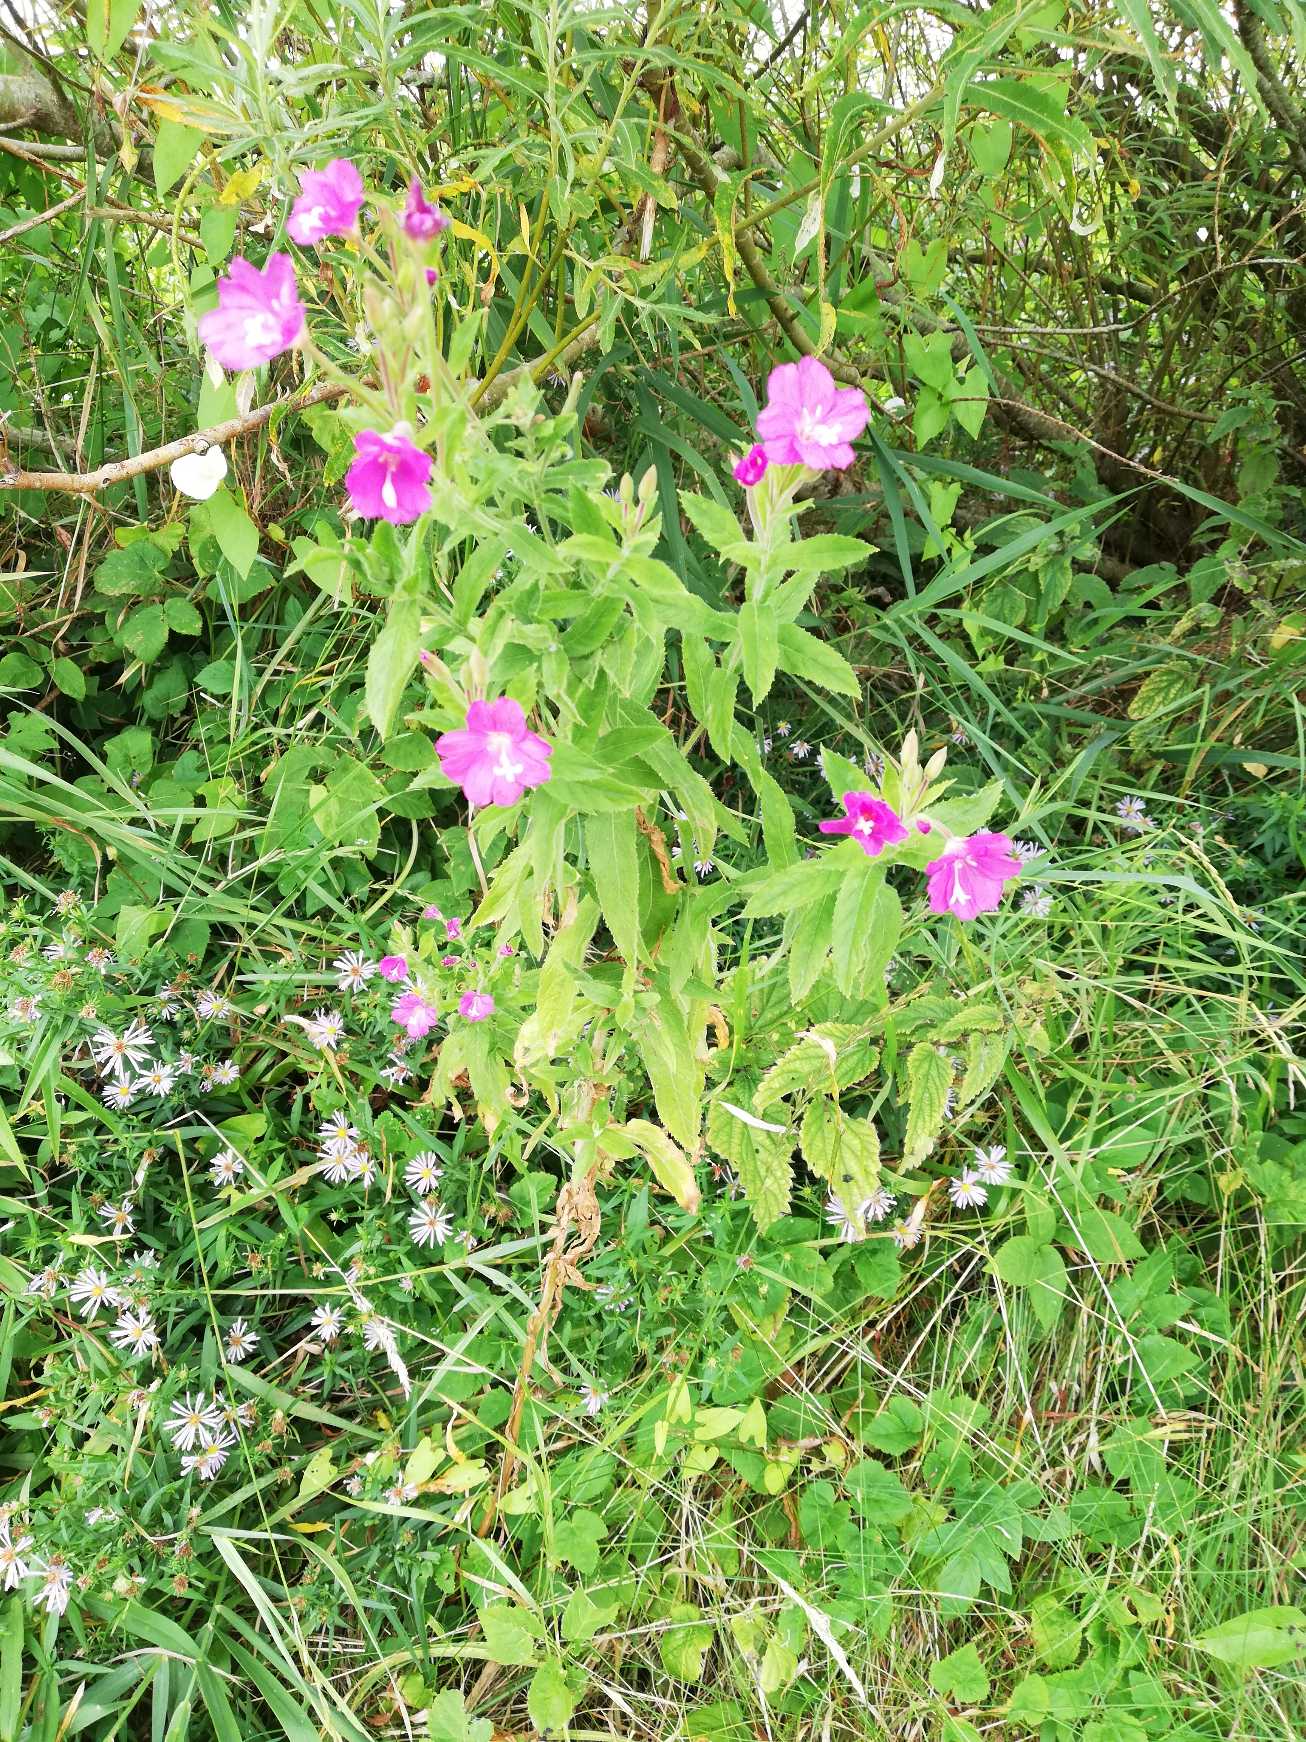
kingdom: Plantae
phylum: Tracheophyta
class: Magnoliopsida
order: Myrtales
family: Onagraceae
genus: Epilobium
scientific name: Epilobium hirsutum
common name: Lådden dueurt
